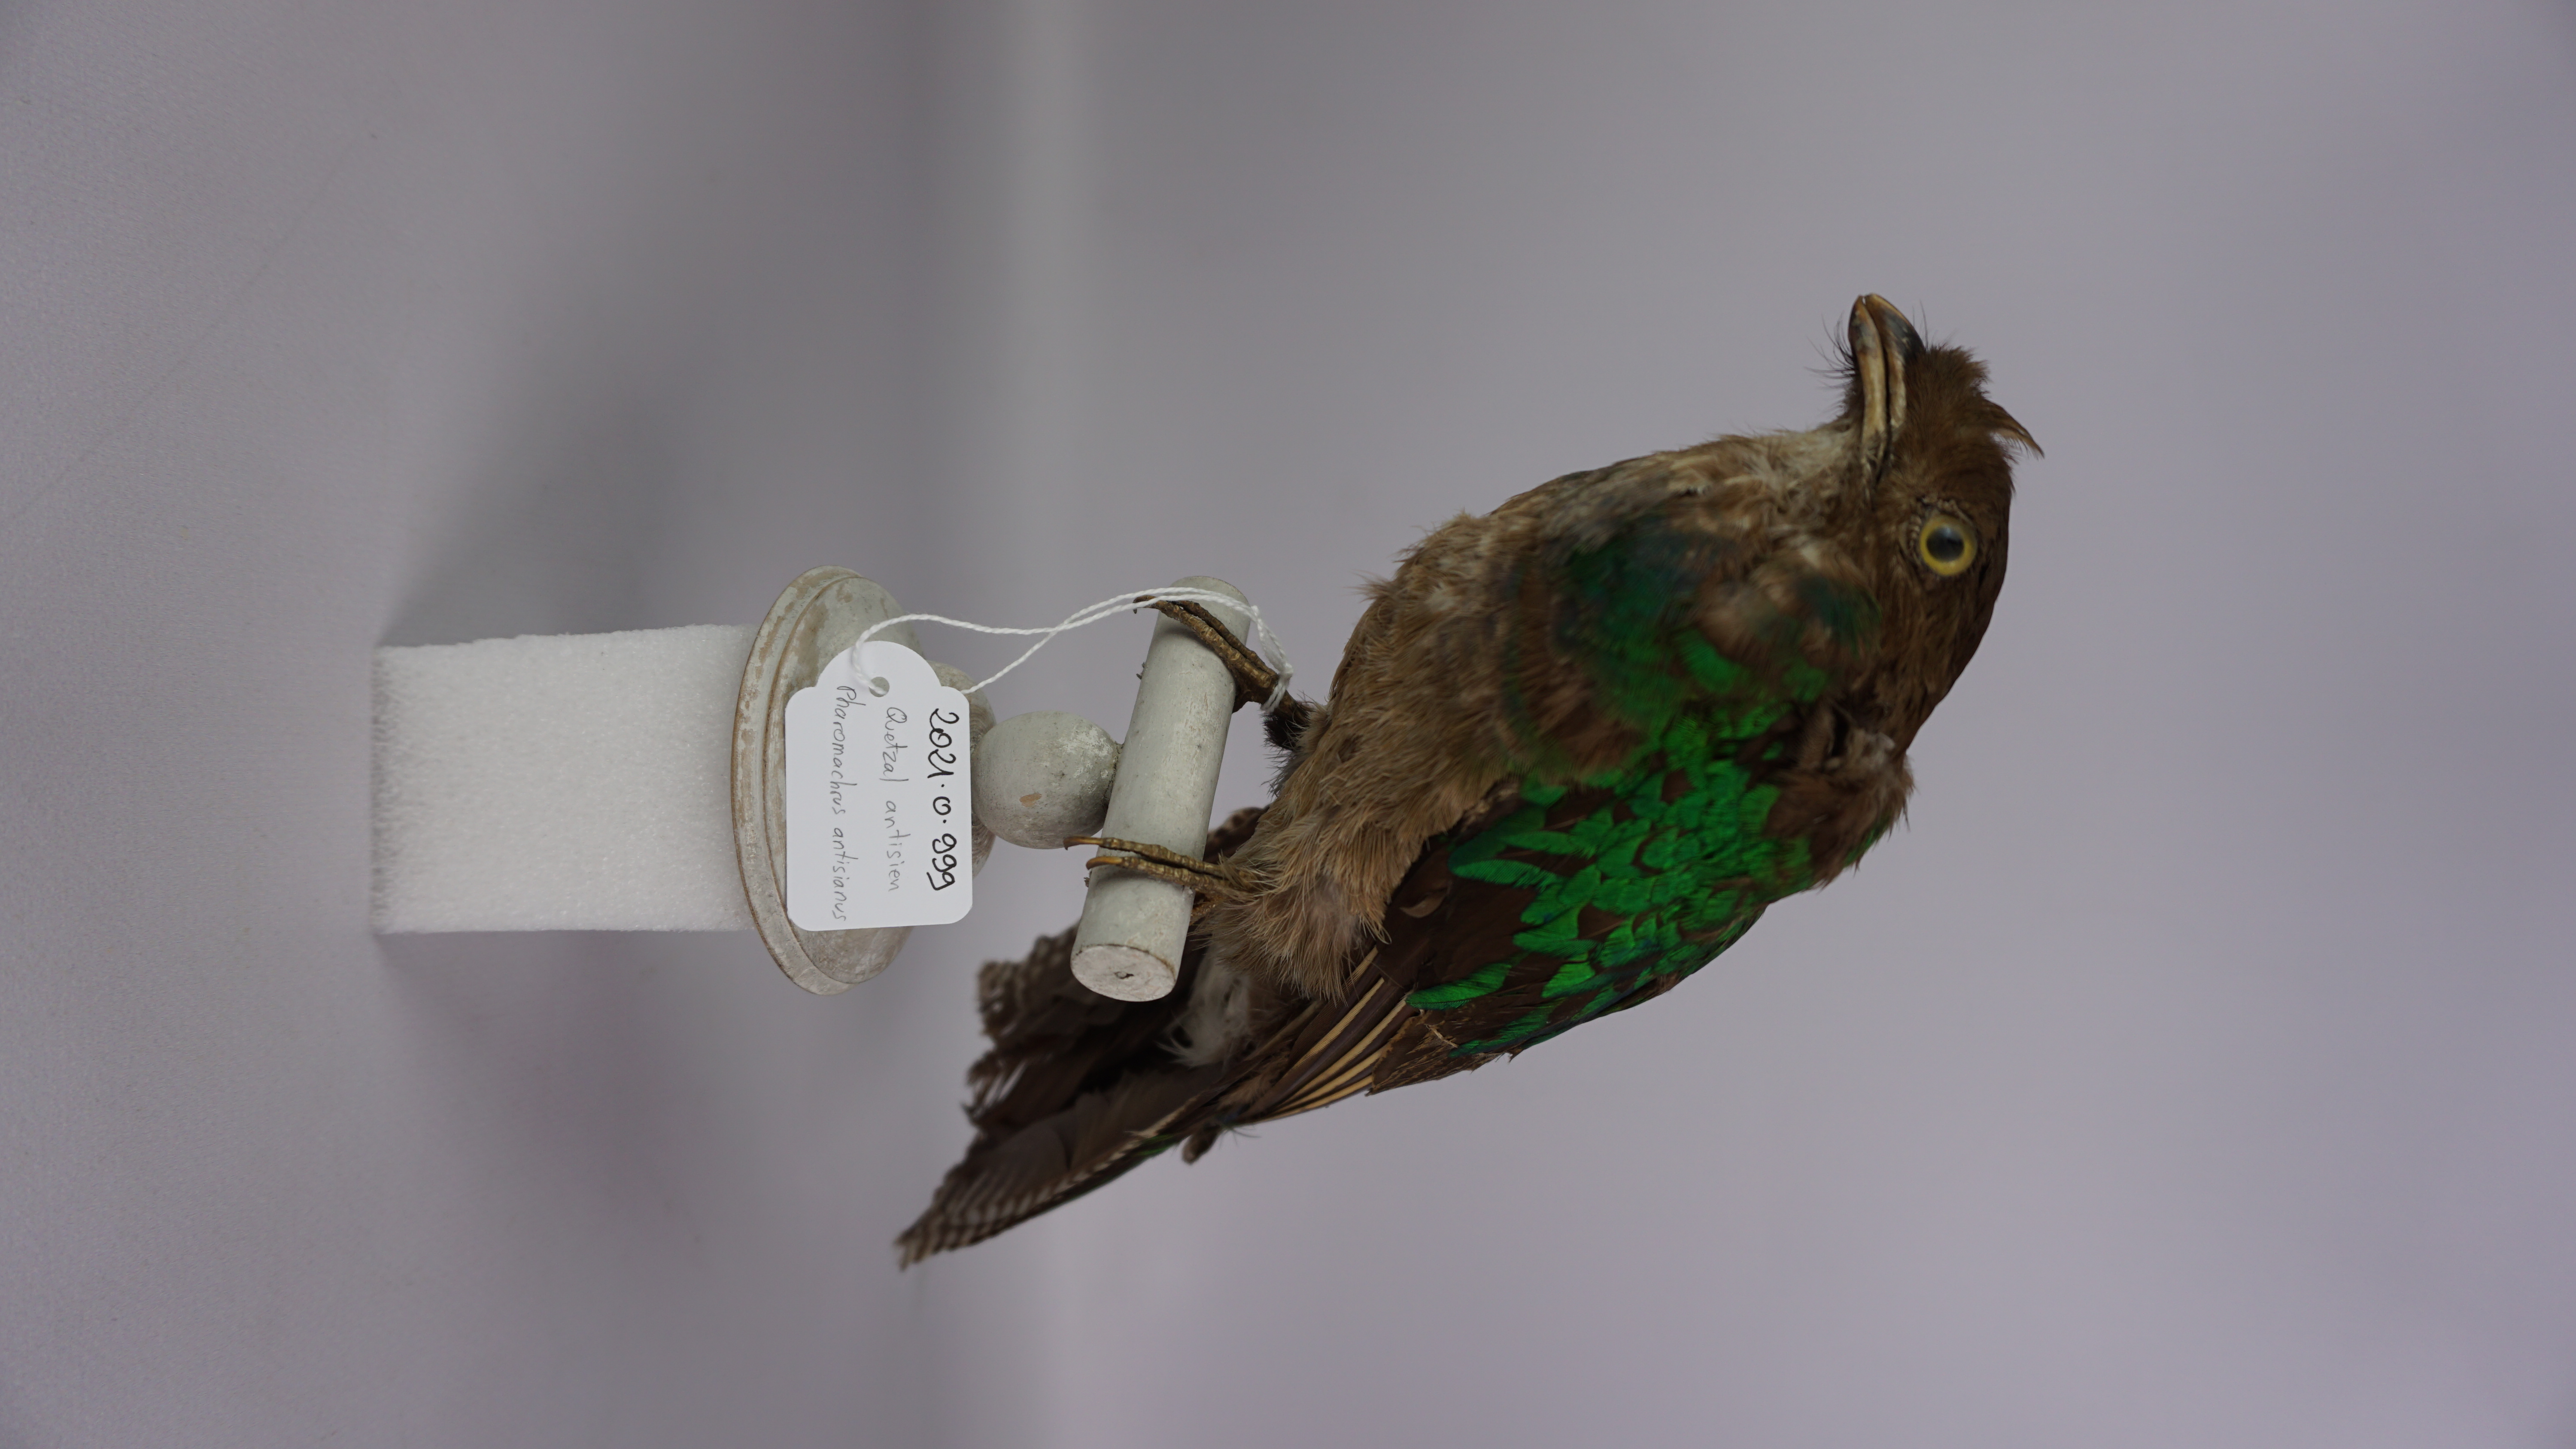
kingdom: Animalia
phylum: Chordata
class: Aves
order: Trogoniformes
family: Trogonidae
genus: Pharomachrus
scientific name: Pharomachrus antisianus
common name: Crested quetzal
